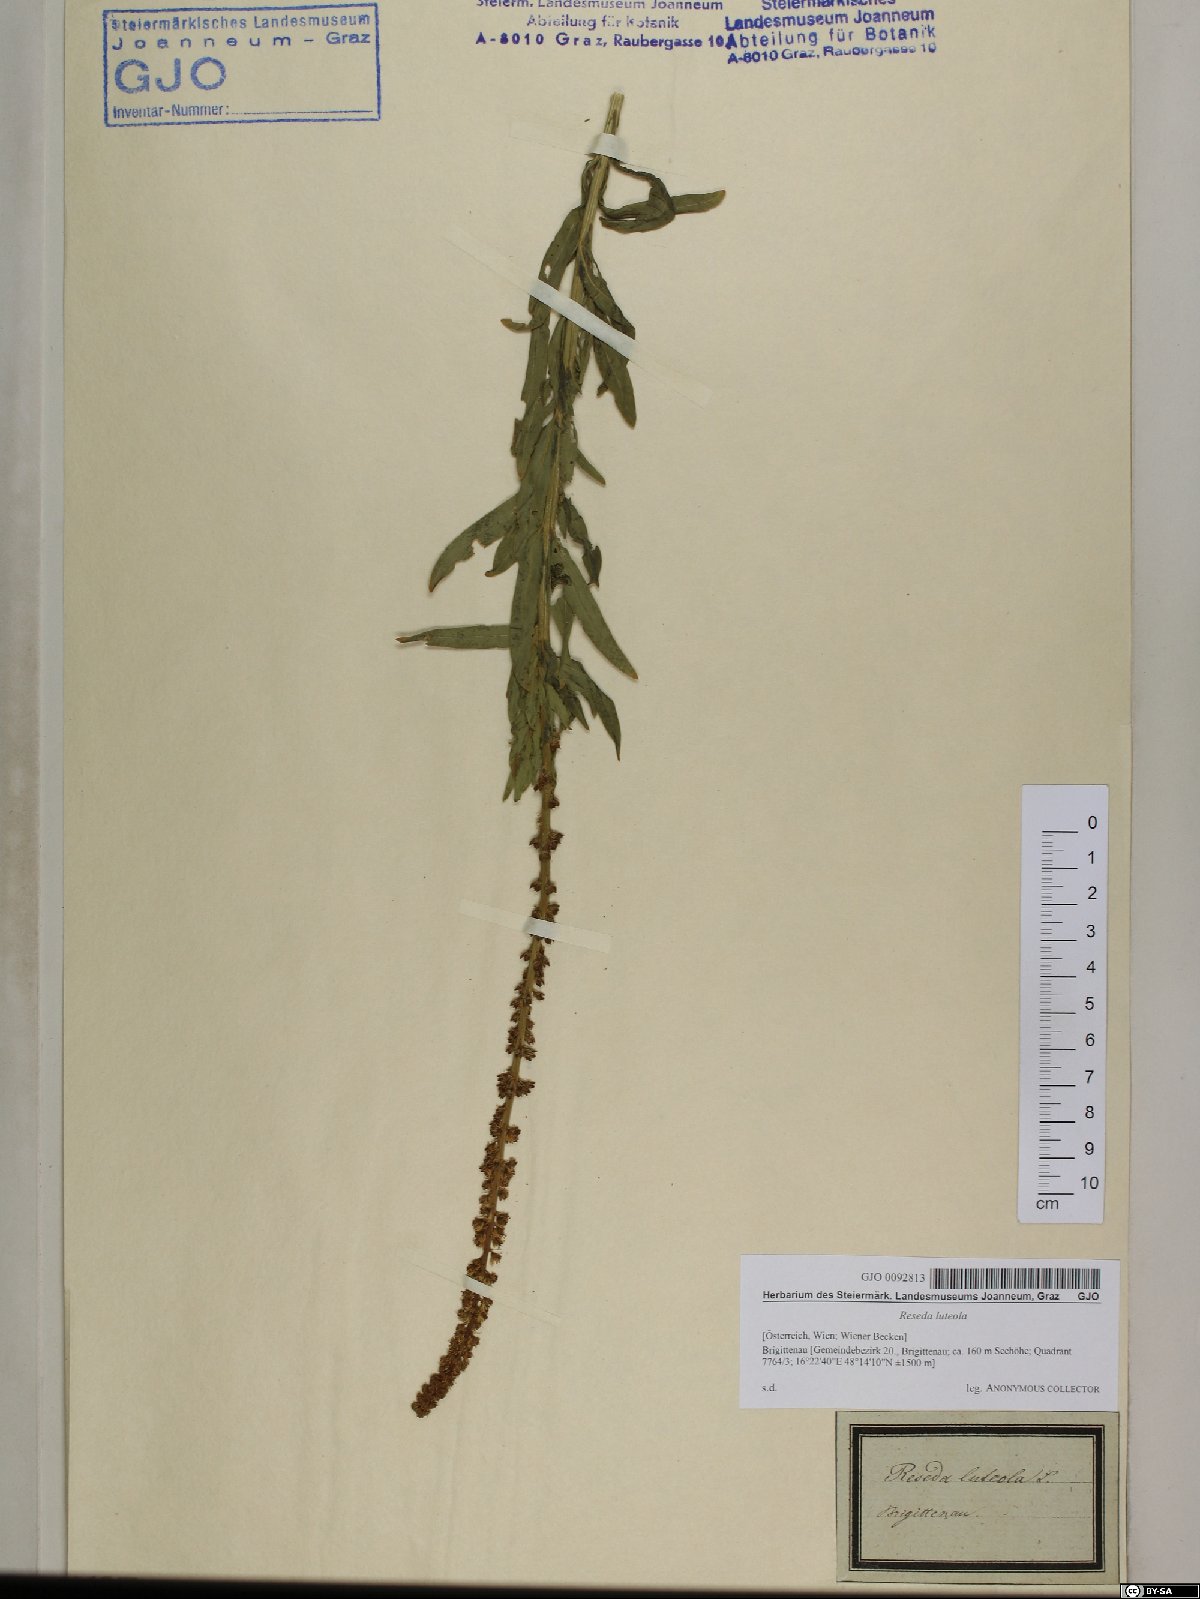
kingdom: Plantae
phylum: Tracheophyta
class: Magnoliopsida
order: Brassicales
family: Resedaceae
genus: Reseda
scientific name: Reseda luteola
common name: Weld
